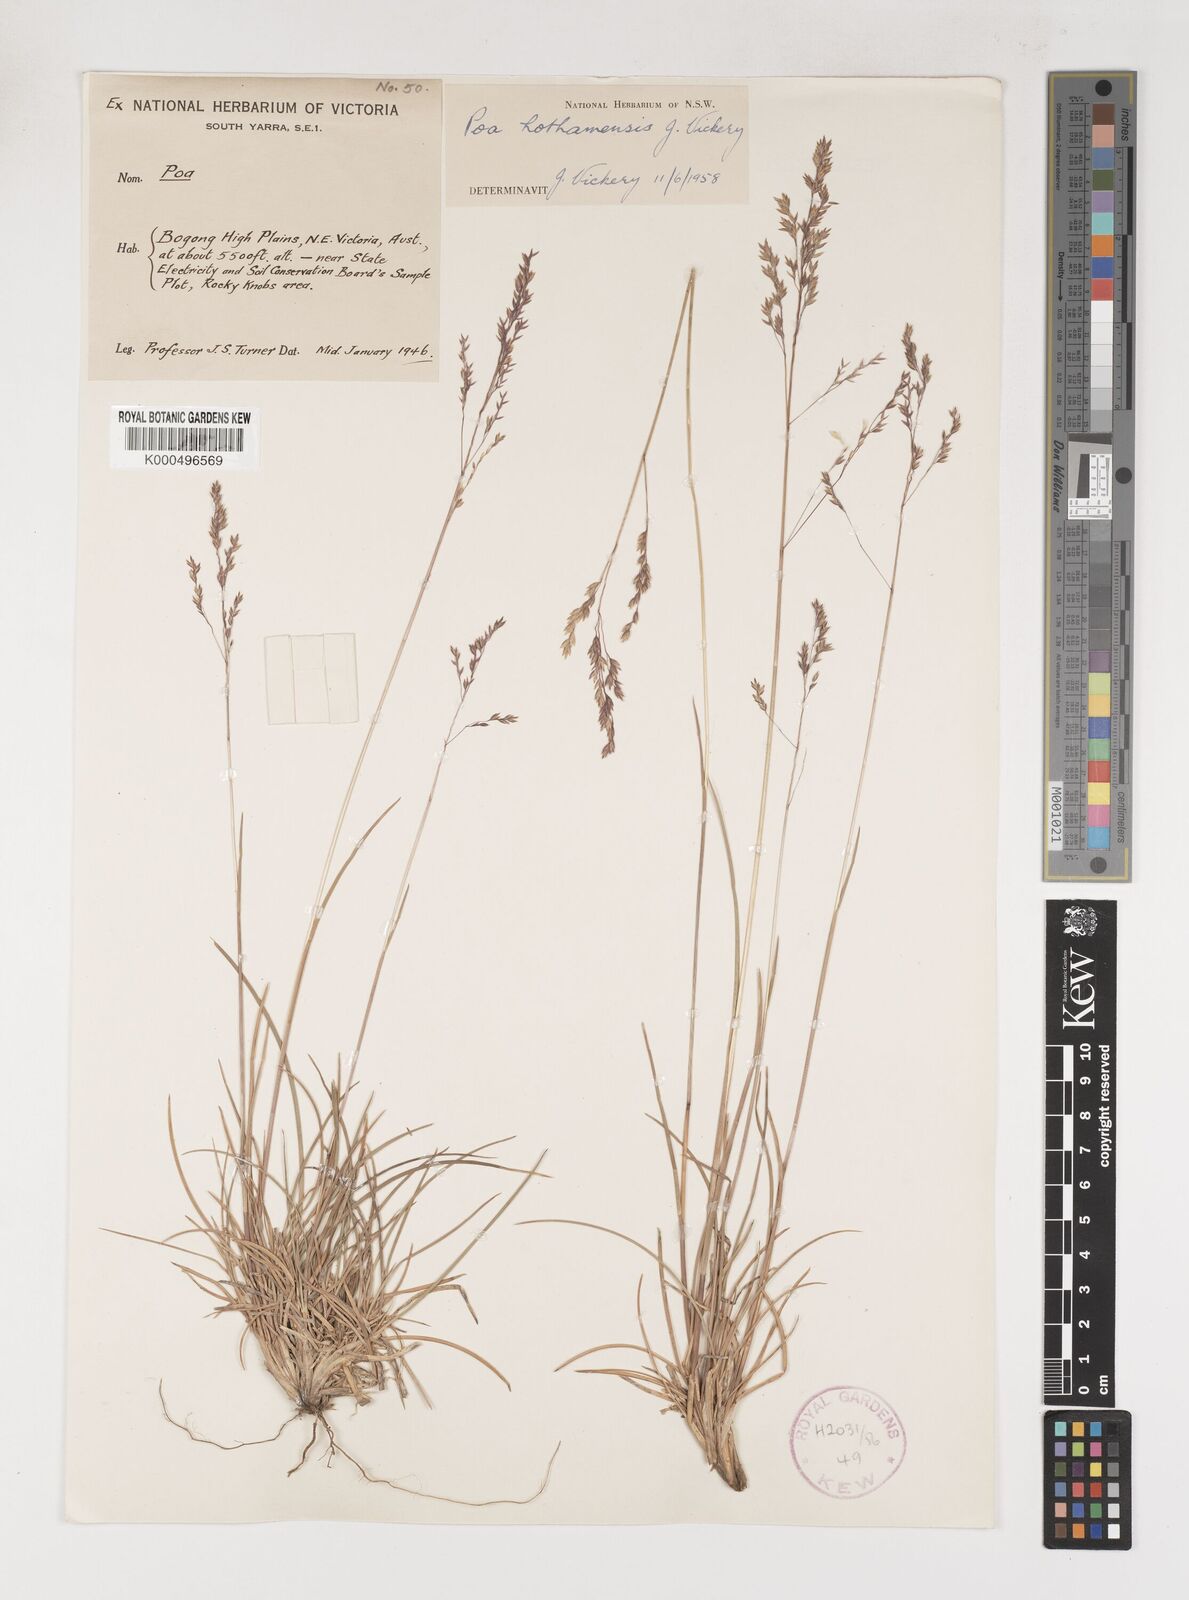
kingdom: Plantae
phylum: Tracheophyta
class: Liliopsida
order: Poales
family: Poaceae
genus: Poa
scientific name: Poa hothamensis
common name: Ledge grass
